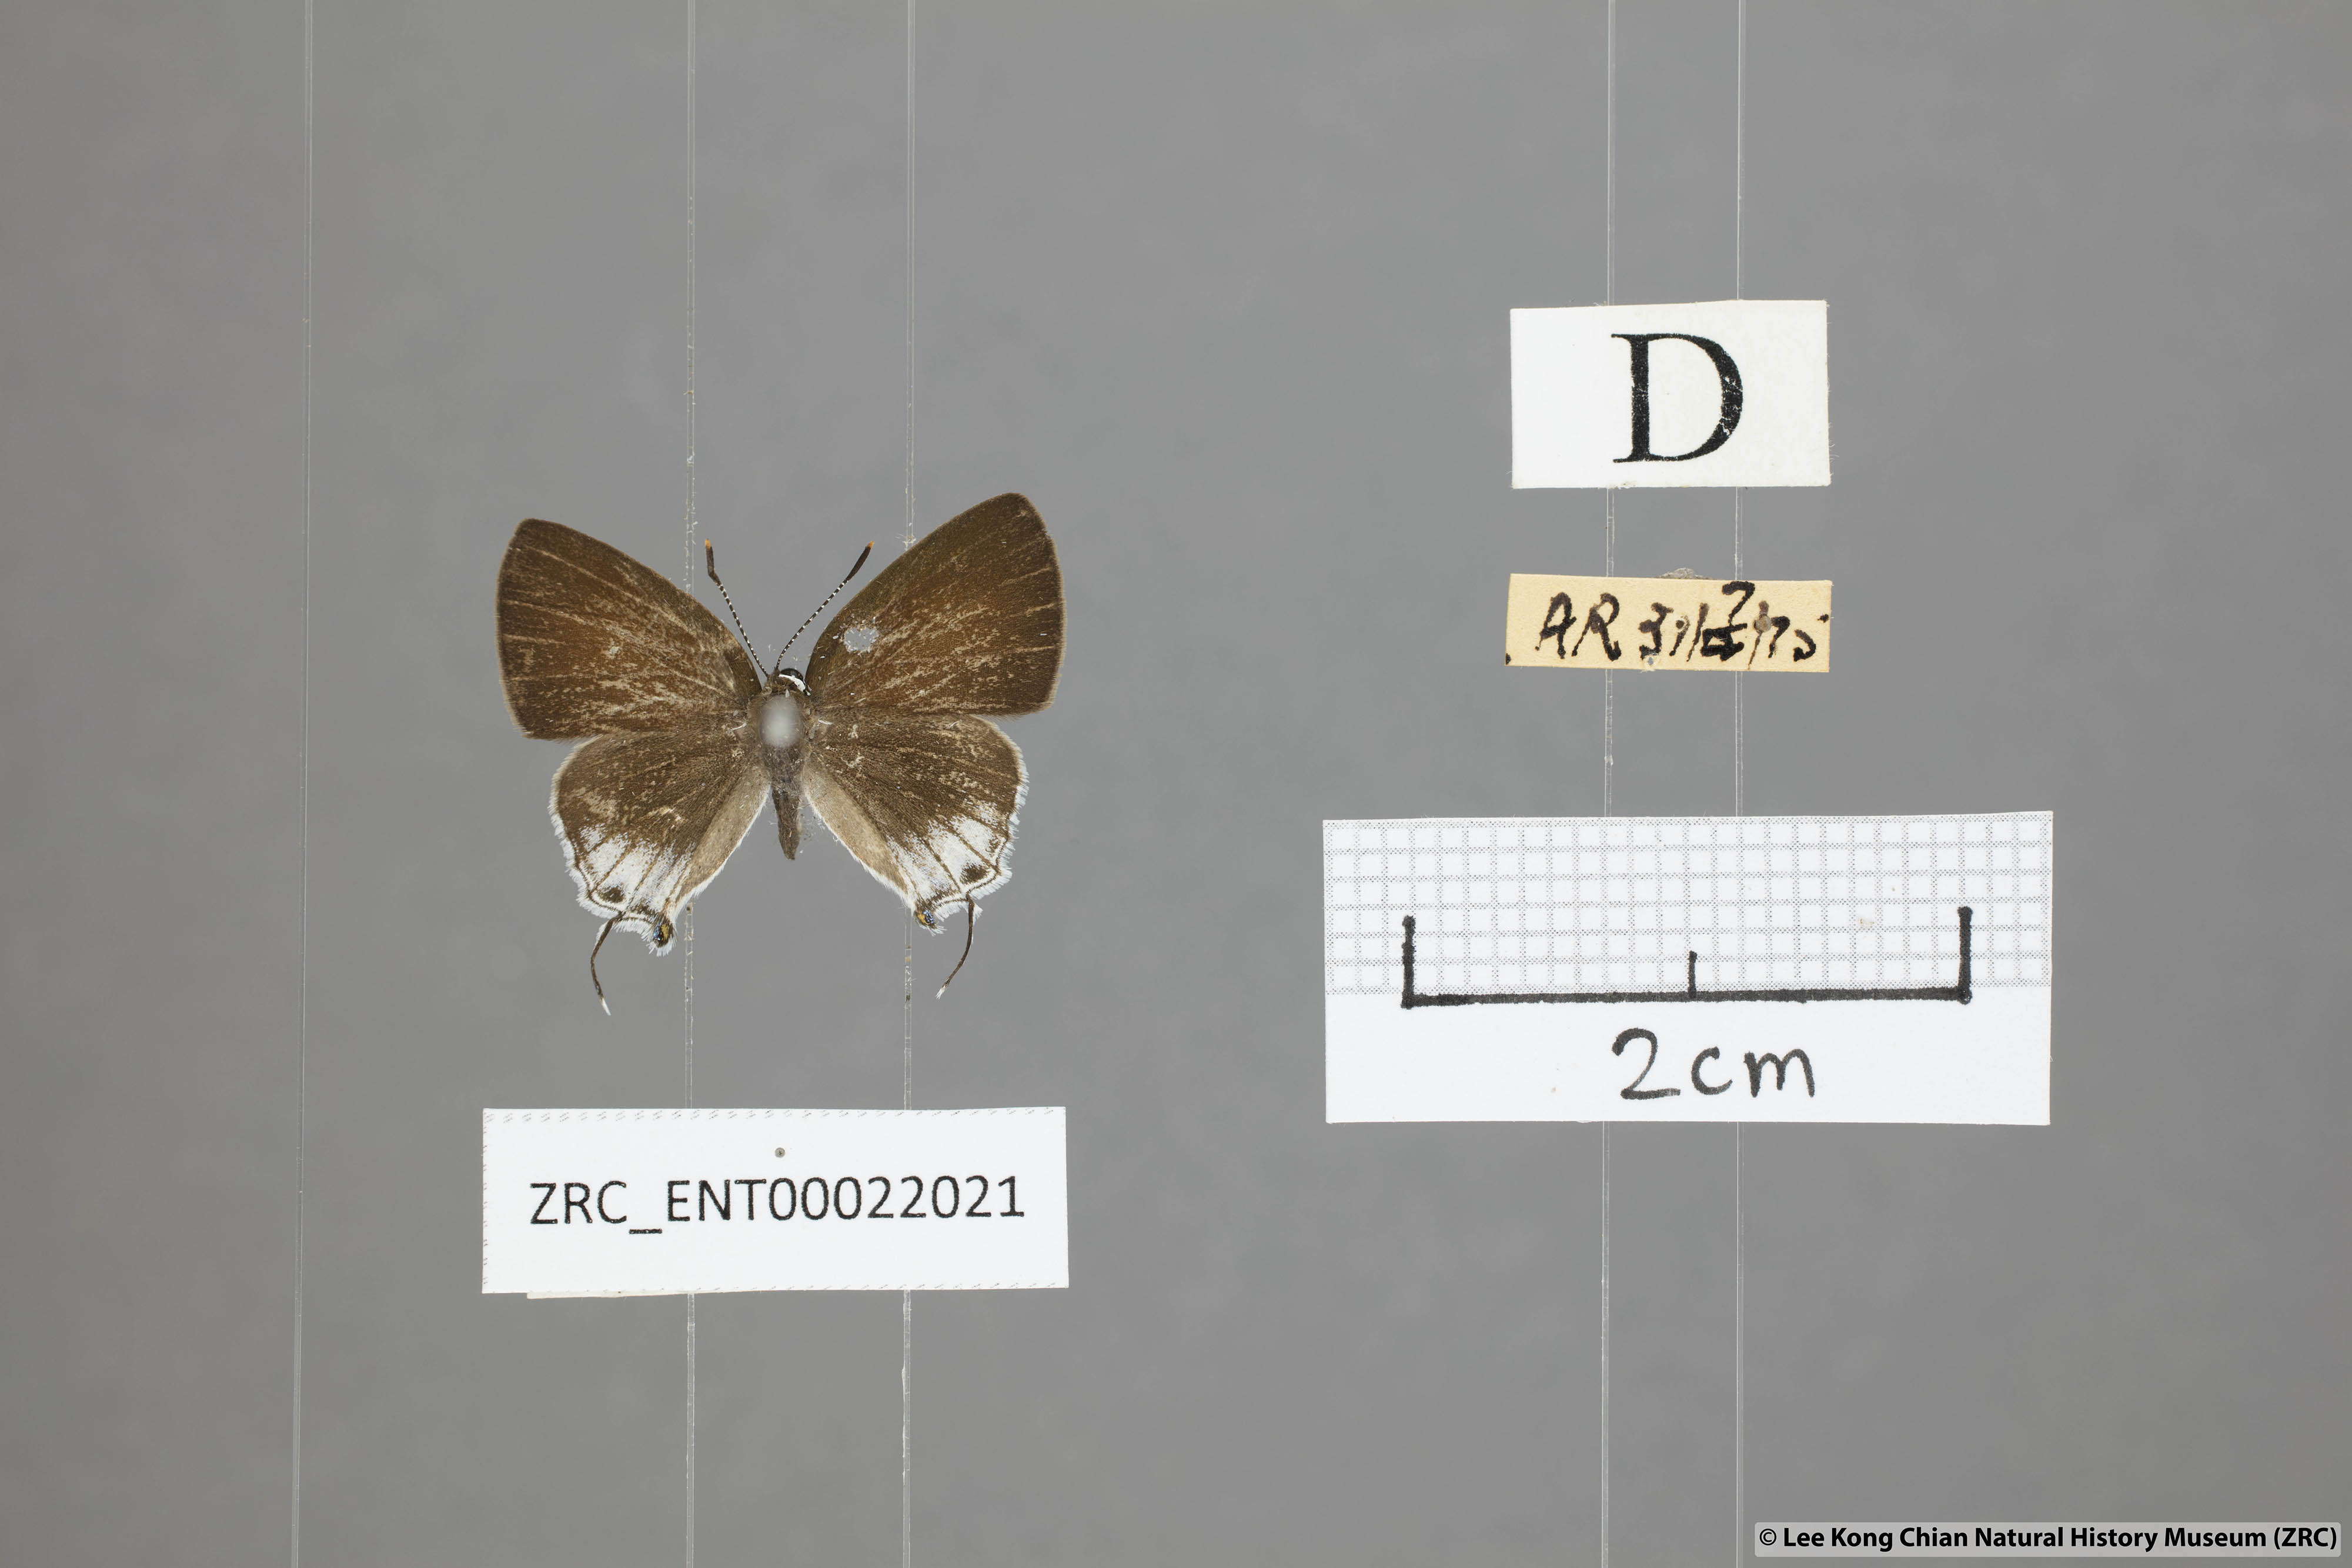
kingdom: Animalia
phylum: Arthropoda
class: Insecta
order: Lepidoptera
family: Lycaenidae
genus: Sinthusa
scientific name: Sinthusa nasaka
